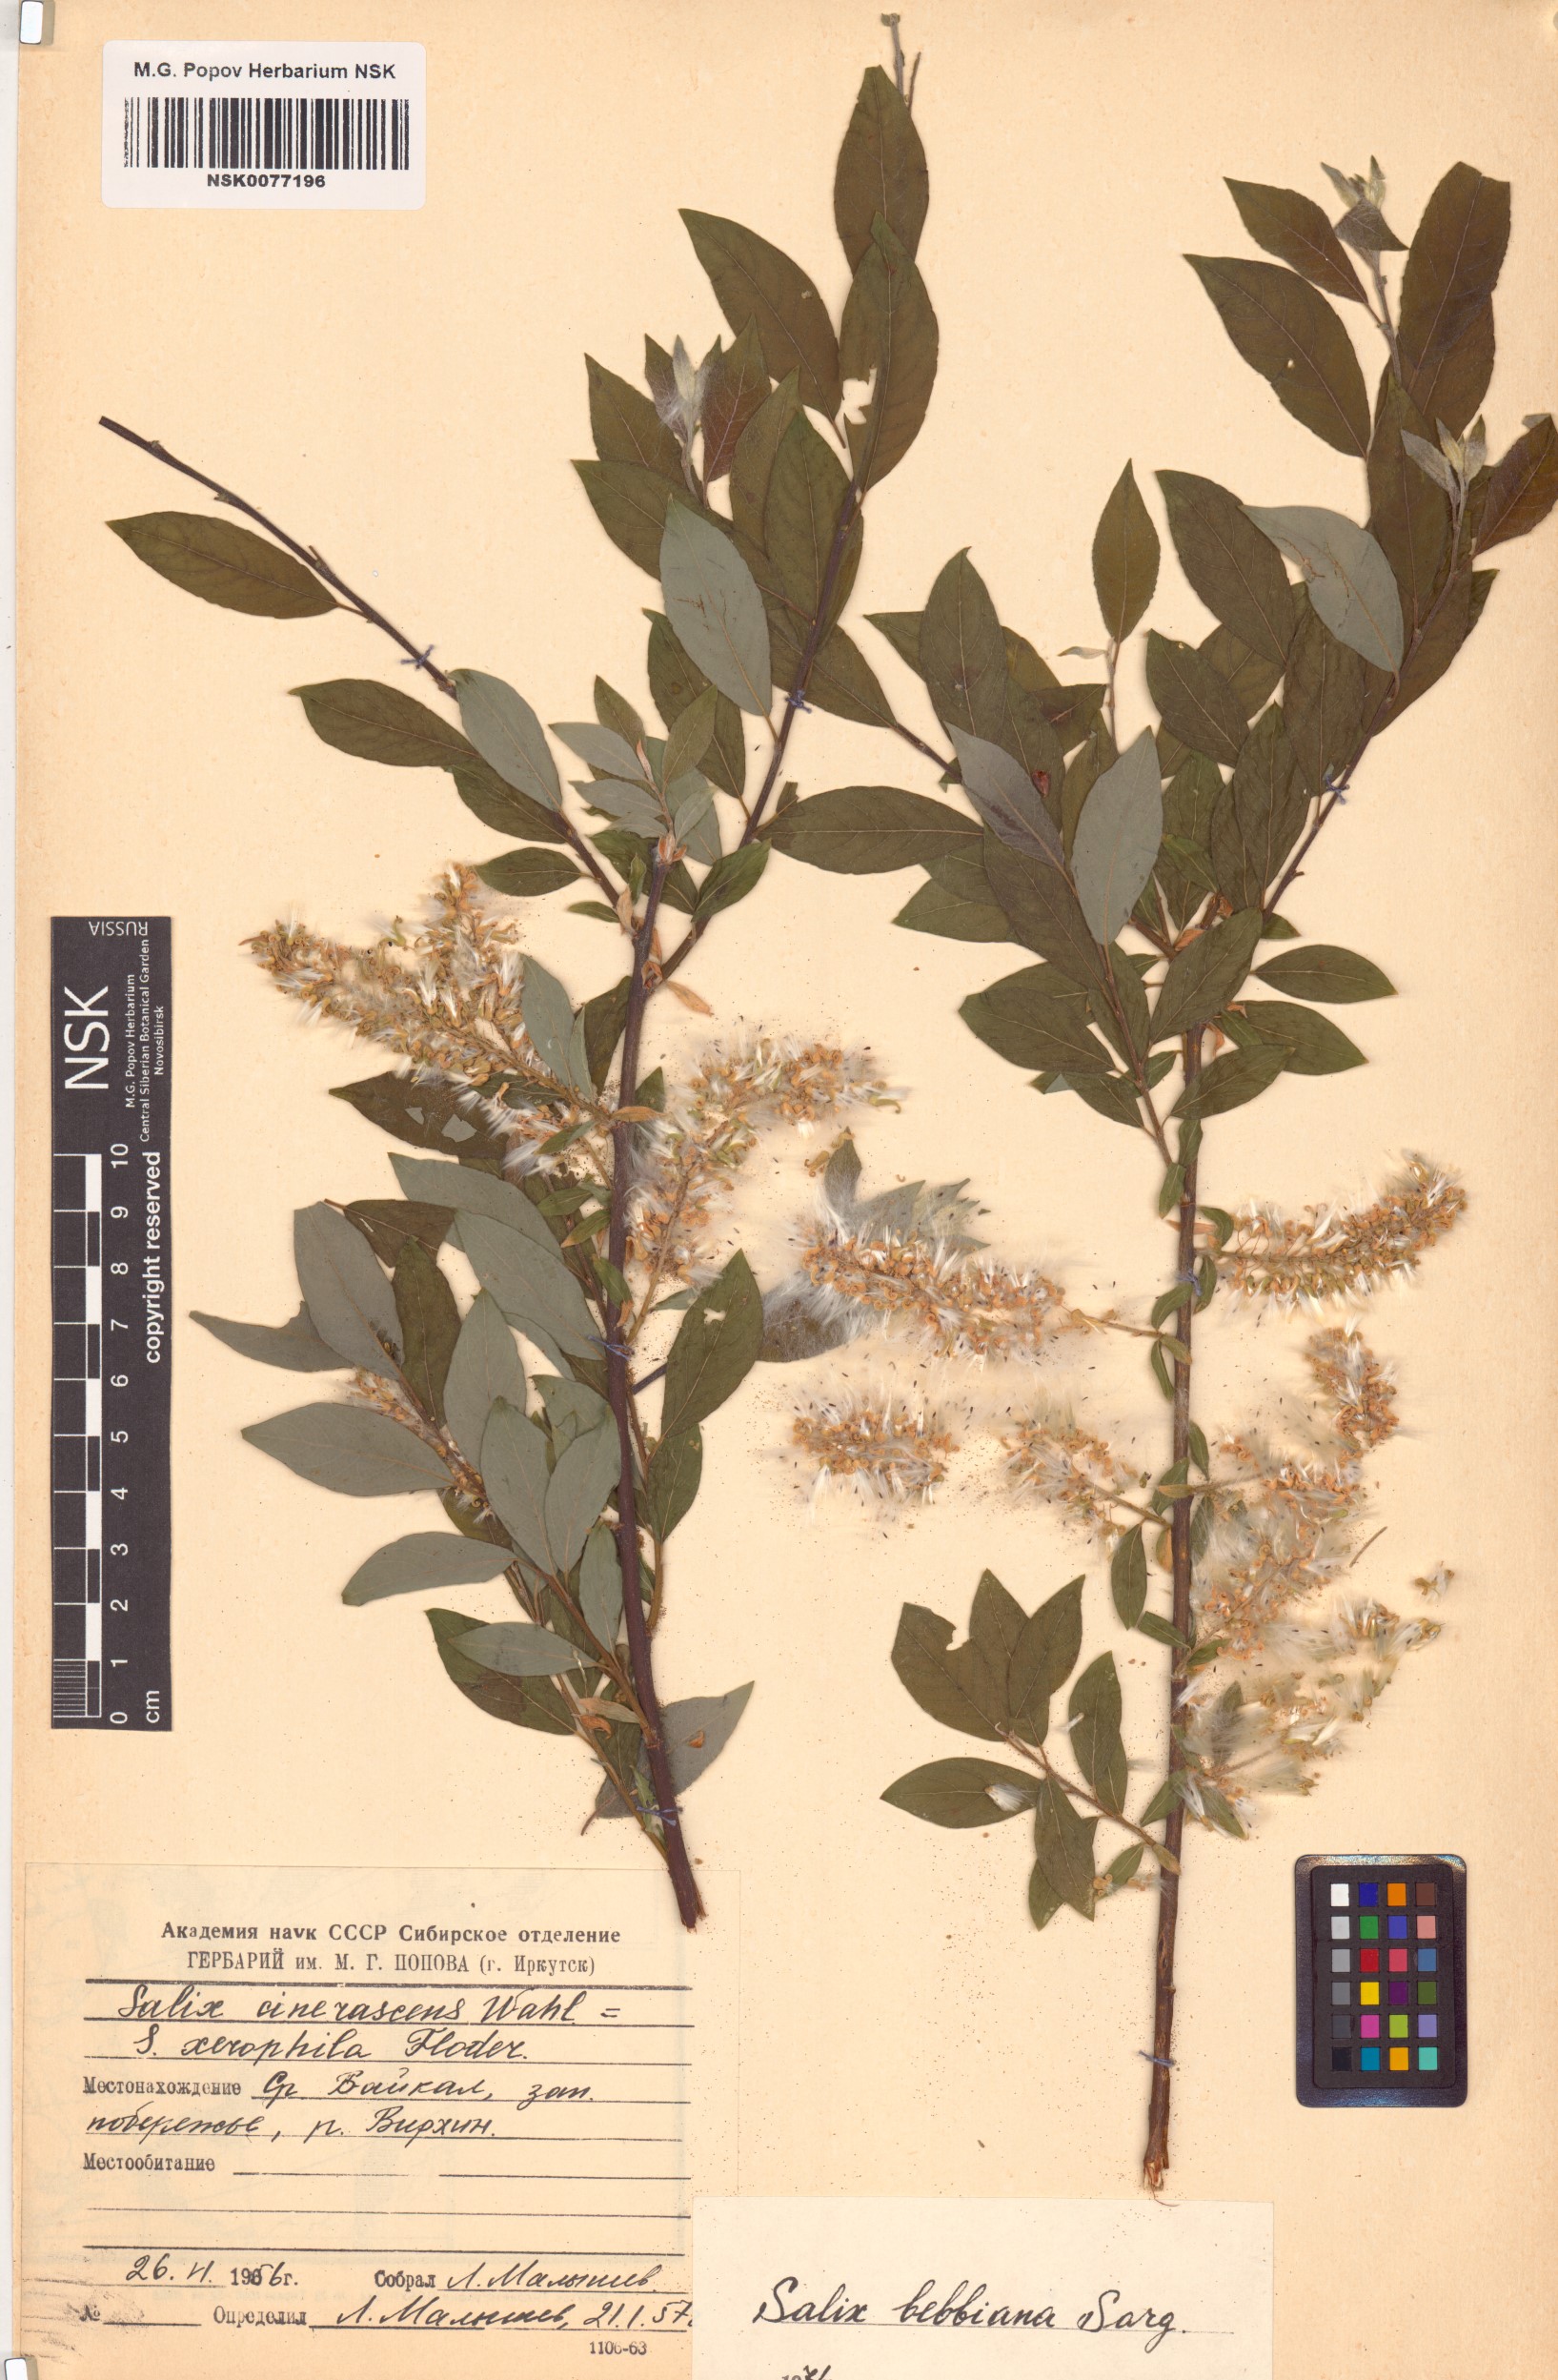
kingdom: Plantae
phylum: Tracheophyta
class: Magnoliopsida
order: Malpighiales
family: Salicaceae
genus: Salix
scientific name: Salix bebbiana
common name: Bebb's willow
